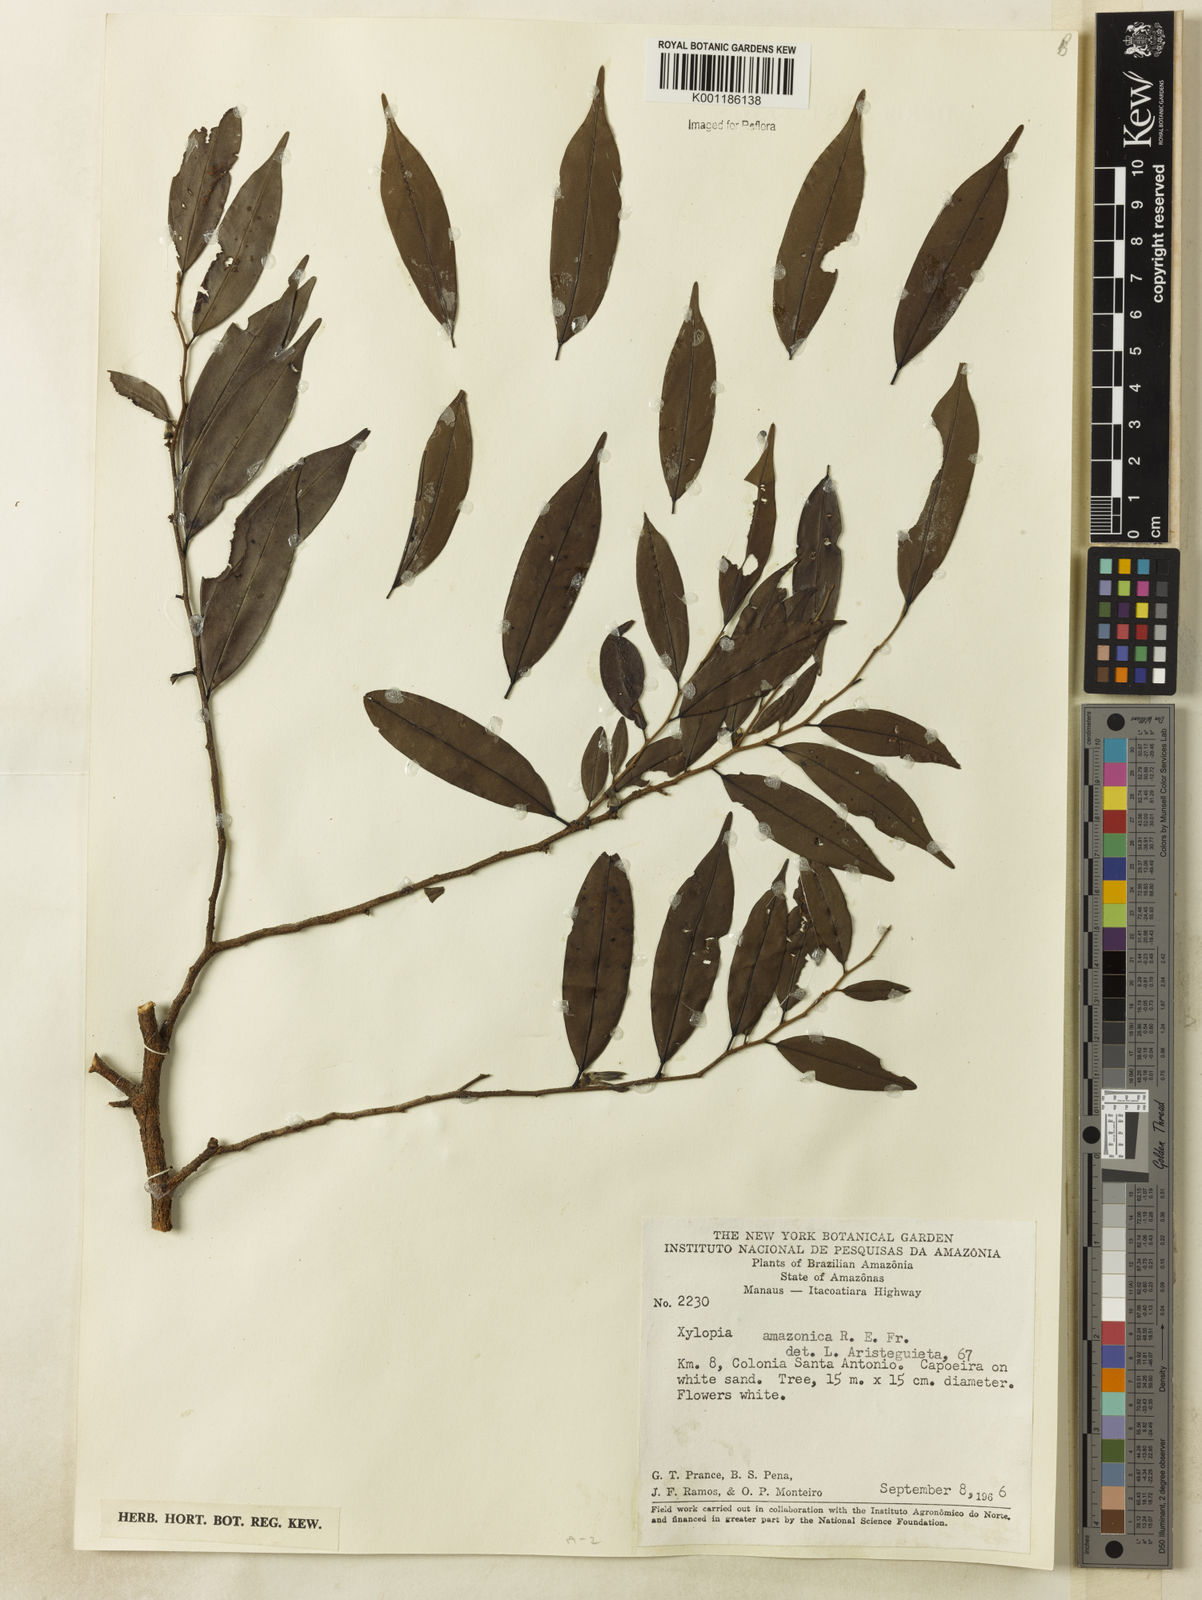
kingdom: Plantae
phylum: Tracheophyta
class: Magnoliopsida
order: Magnoliales
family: Annonaceae
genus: Xylopia
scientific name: Xylopia amazonica
